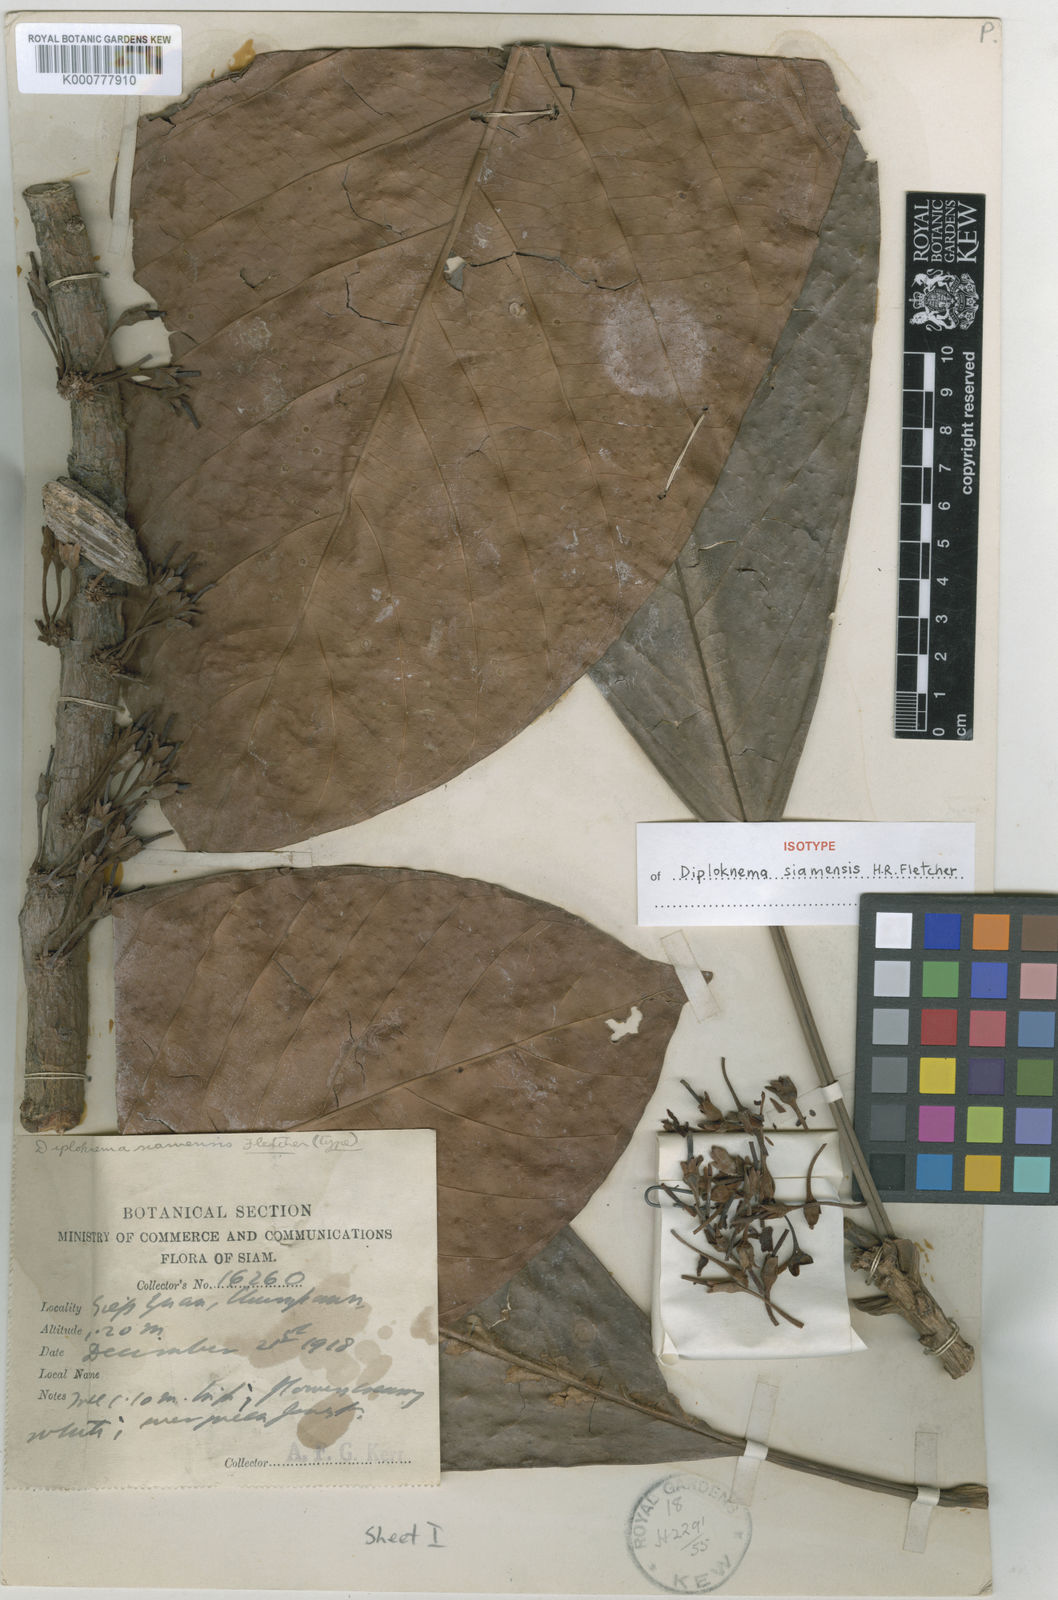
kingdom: Plantae
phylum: Tracheophyta
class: Magnoliopsida
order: Ericales
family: Sapotaceae
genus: Diploknema
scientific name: Diploknema siamensis
